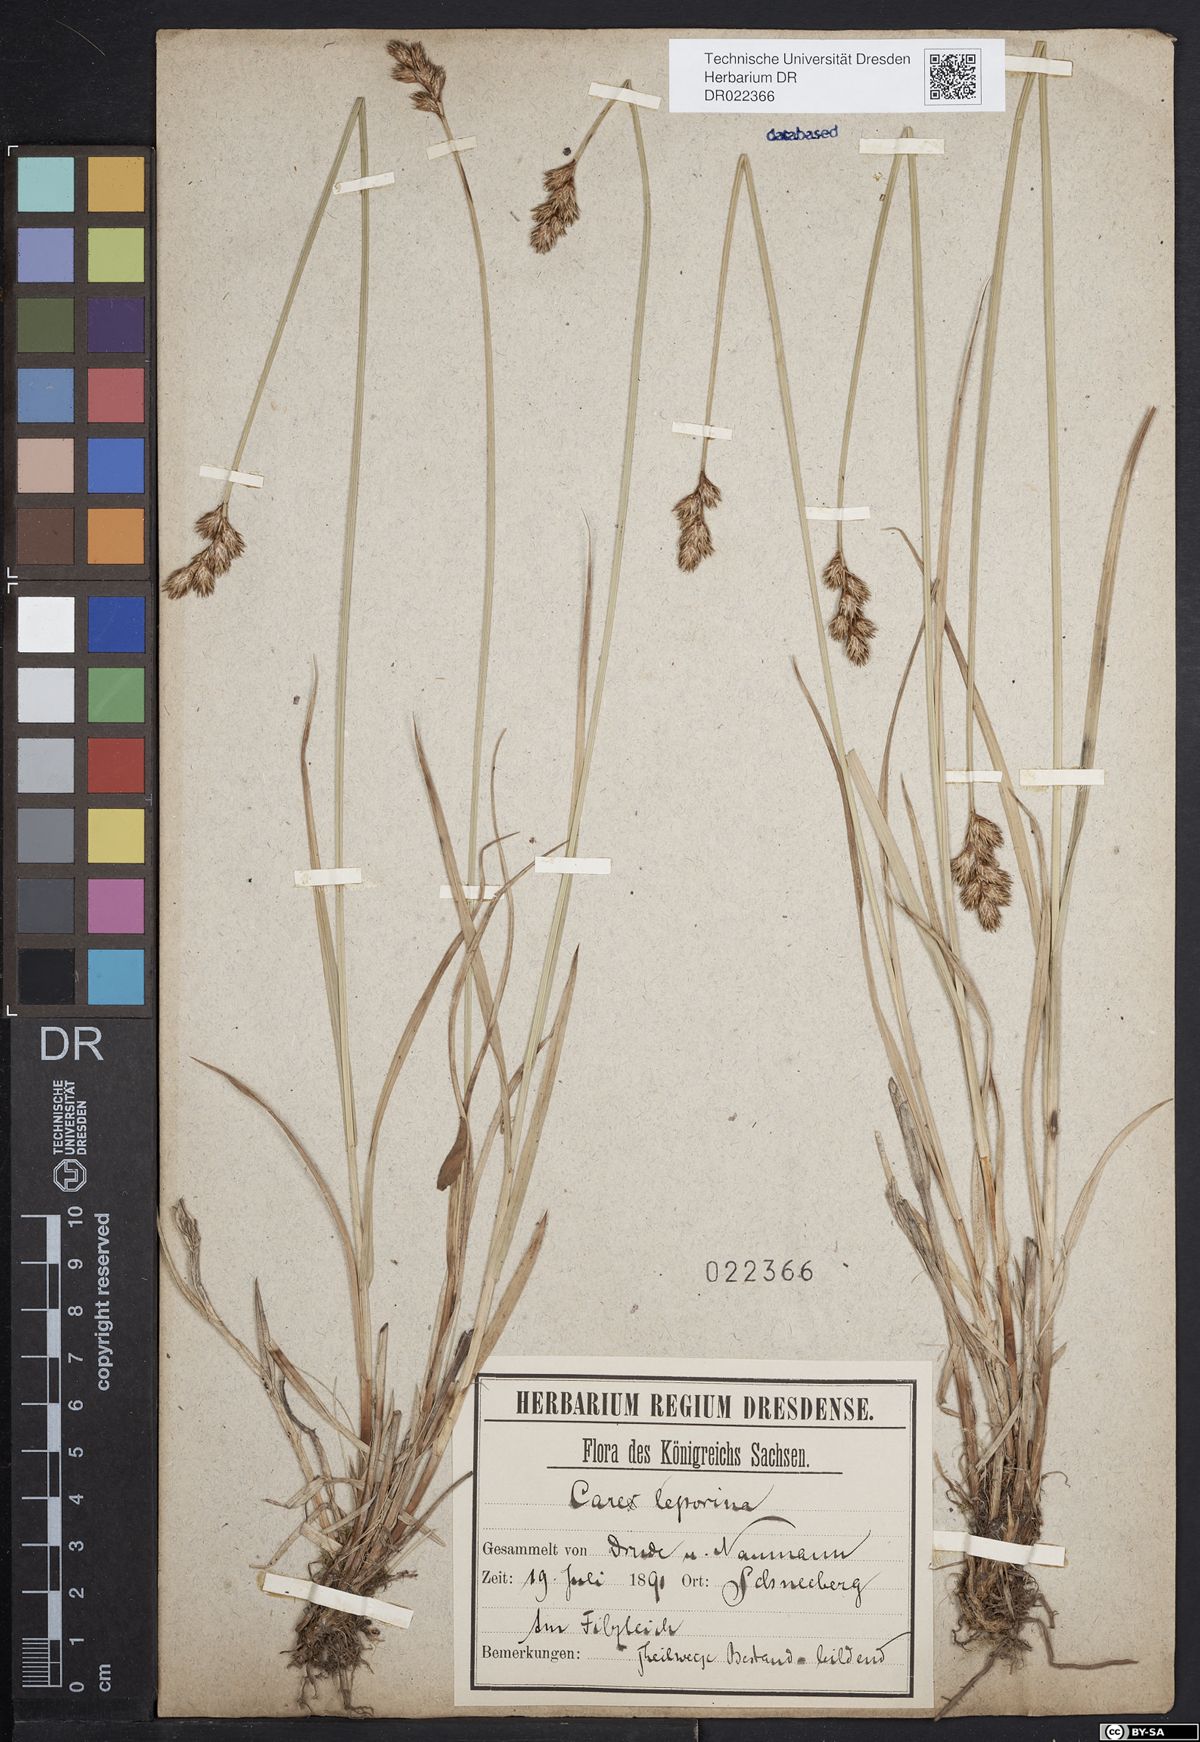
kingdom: Plantae
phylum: Tracheophyta
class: Liliopsida
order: Poales
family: Cyperaceae
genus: Carex
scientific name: Carex leporina
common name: Oval sedge
